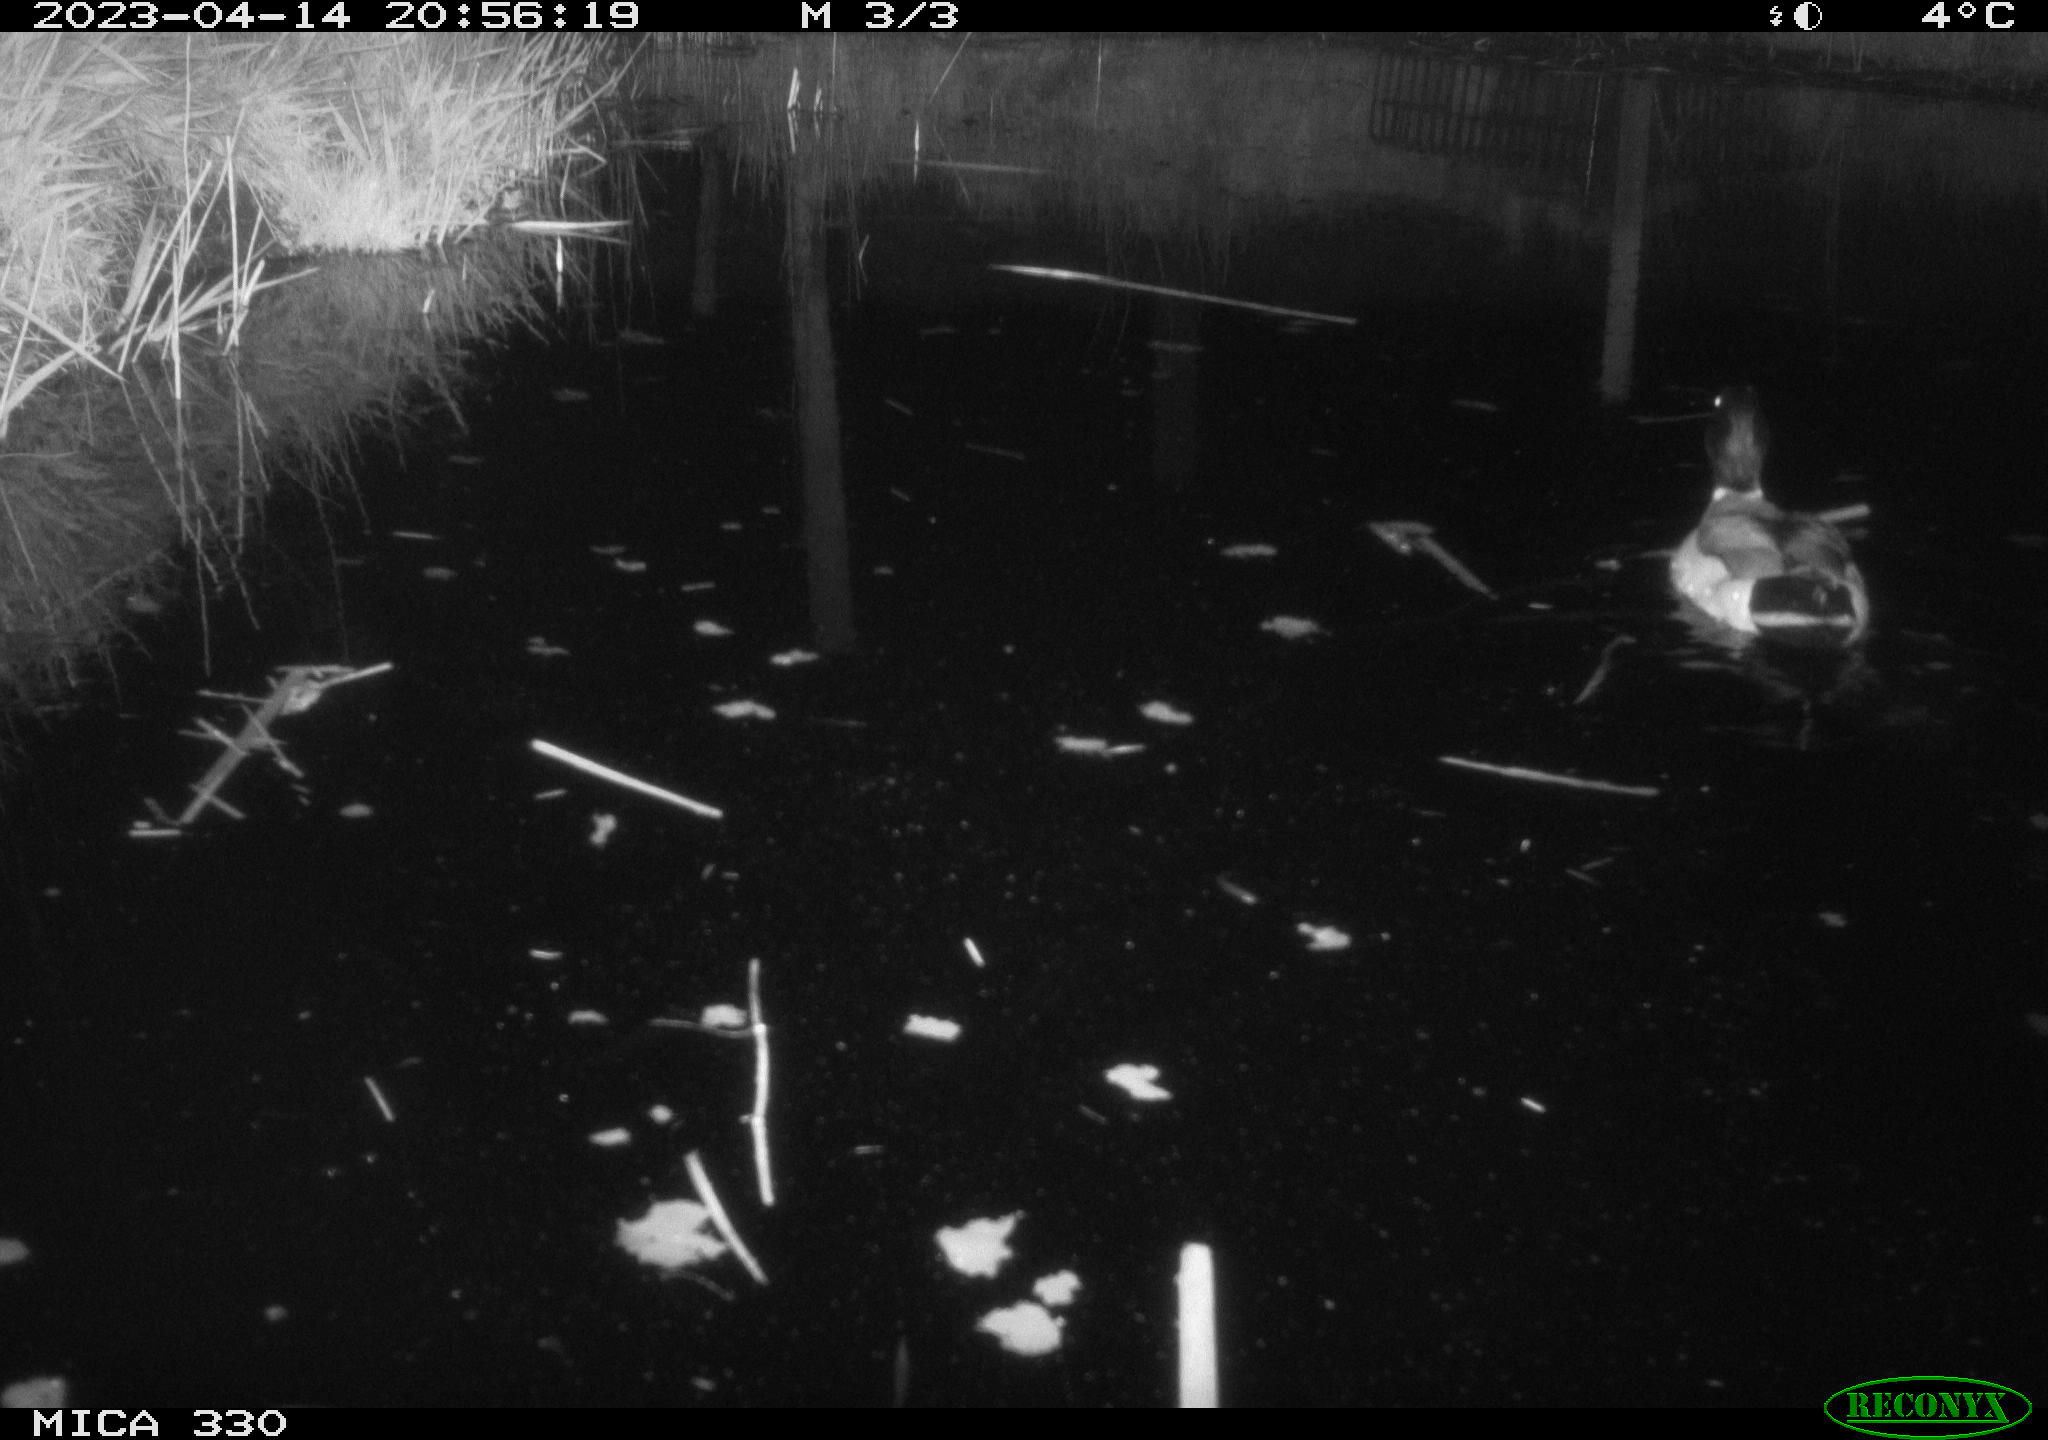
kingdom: Animalia
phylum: Chordata
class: Aves
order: Anseriformes
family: Anatidae
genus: Anas
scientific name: Anas
